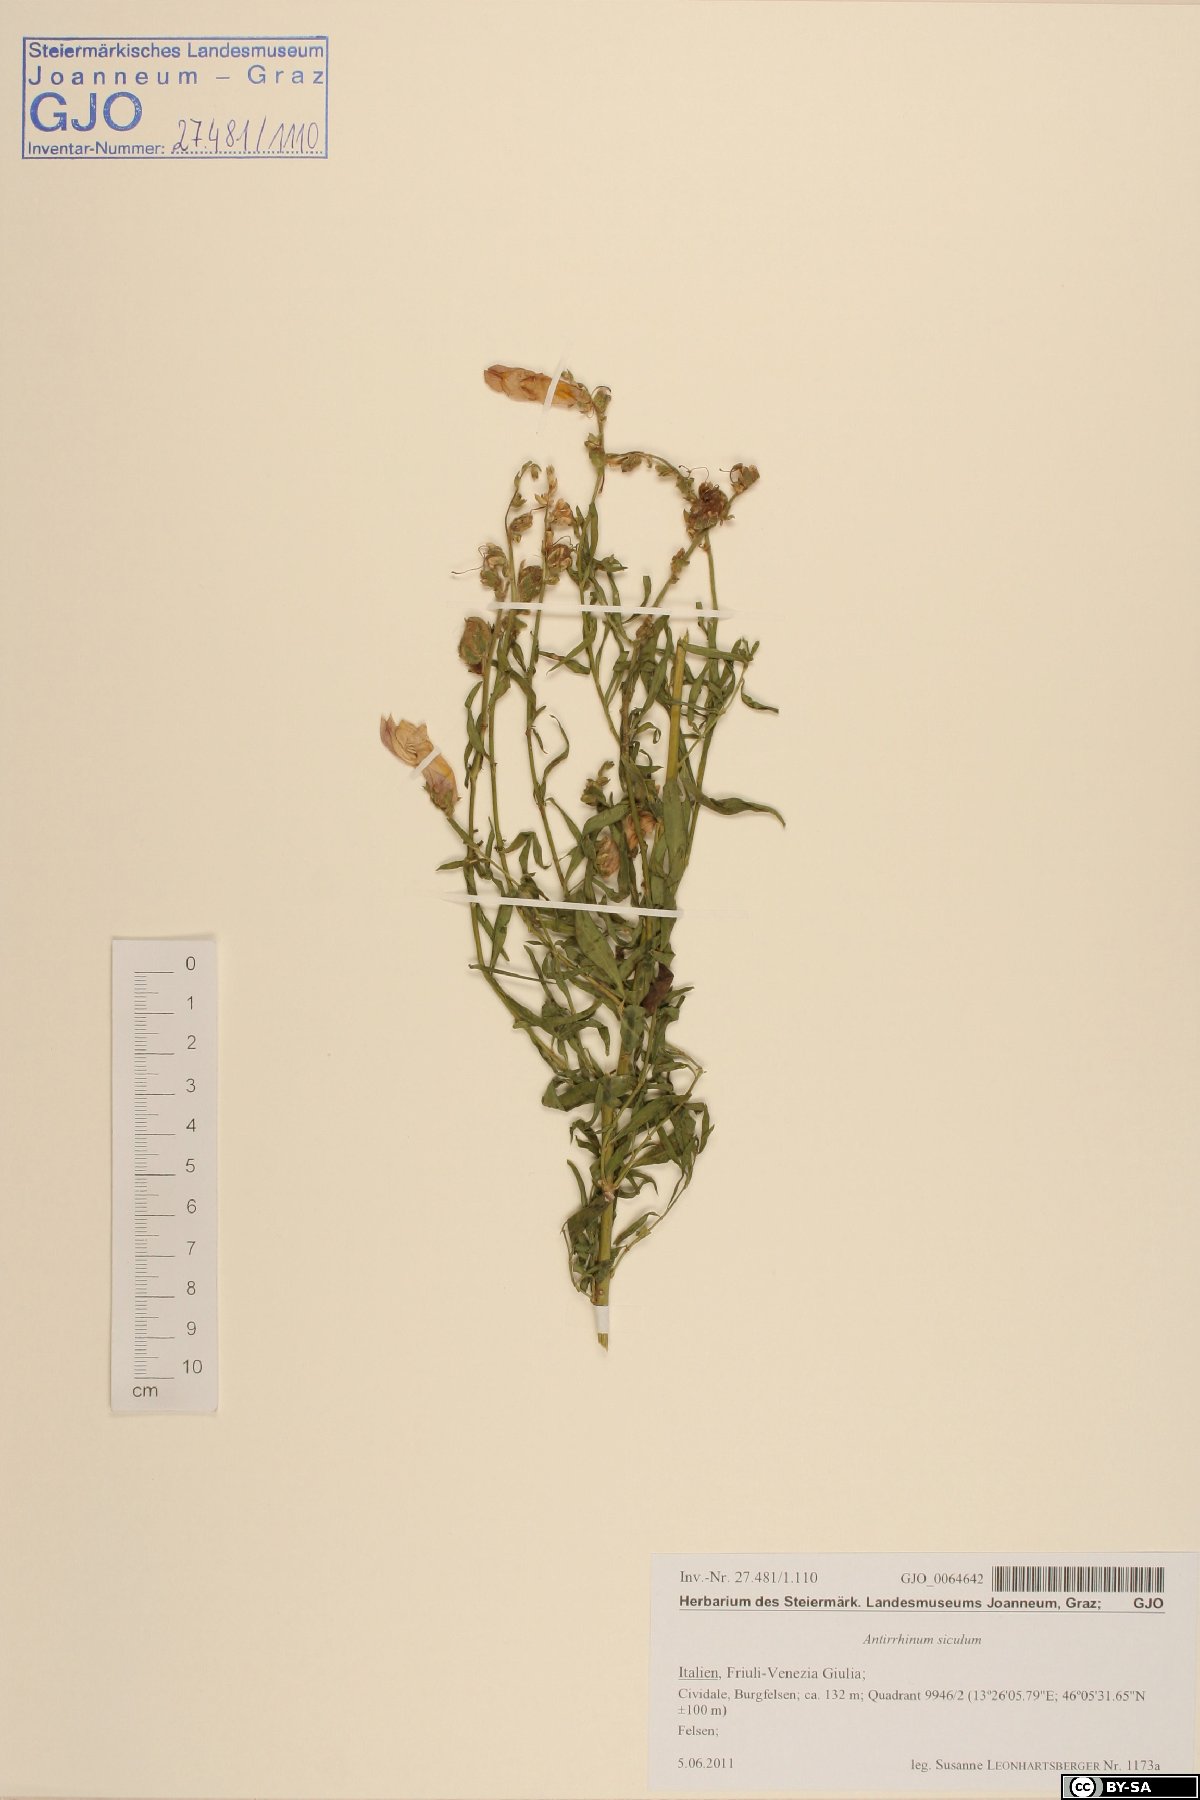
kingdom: Plantae
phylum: Tracheophyta
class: Magnoliopsida
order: Lamiales
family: Plantaginaceae
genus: Antirrhinum
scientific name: Antirrhinum siculum
